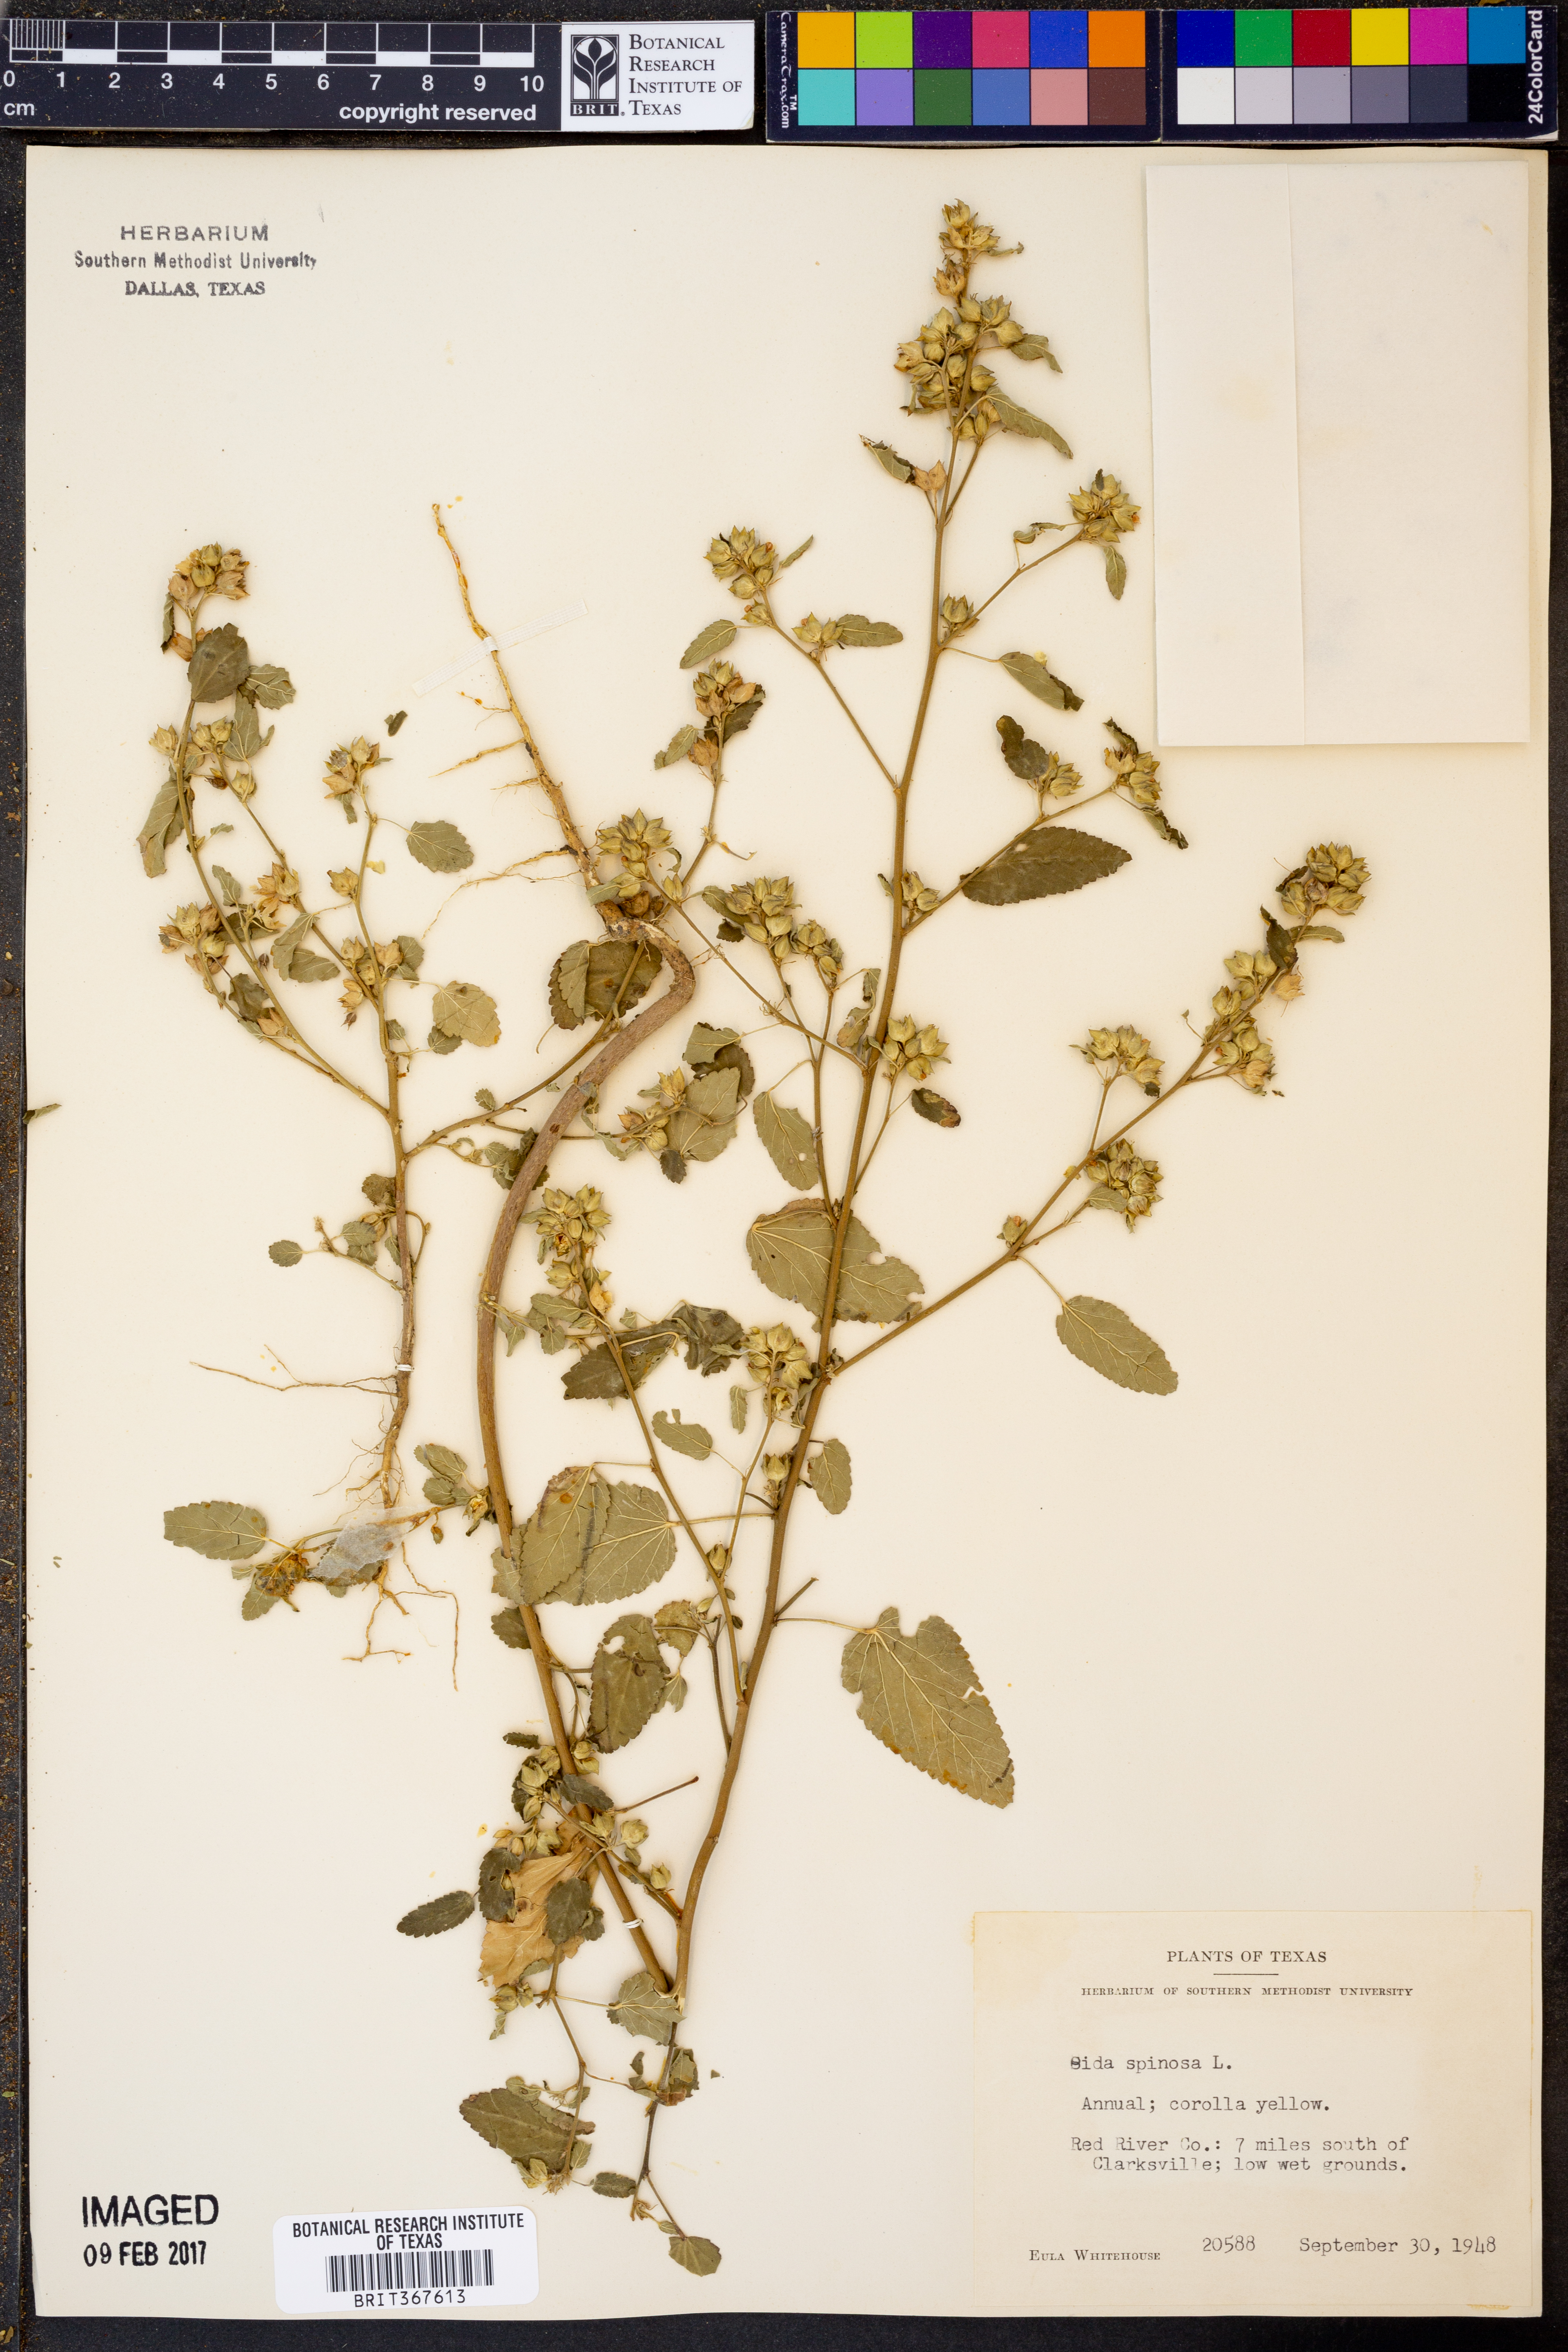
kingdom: Plantae
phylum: Tracheophyta
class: Magnoliopsida
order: Malvales
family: Malvaceae
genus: Sida
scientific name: Sida spinosa
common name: Prickly fanpetals
